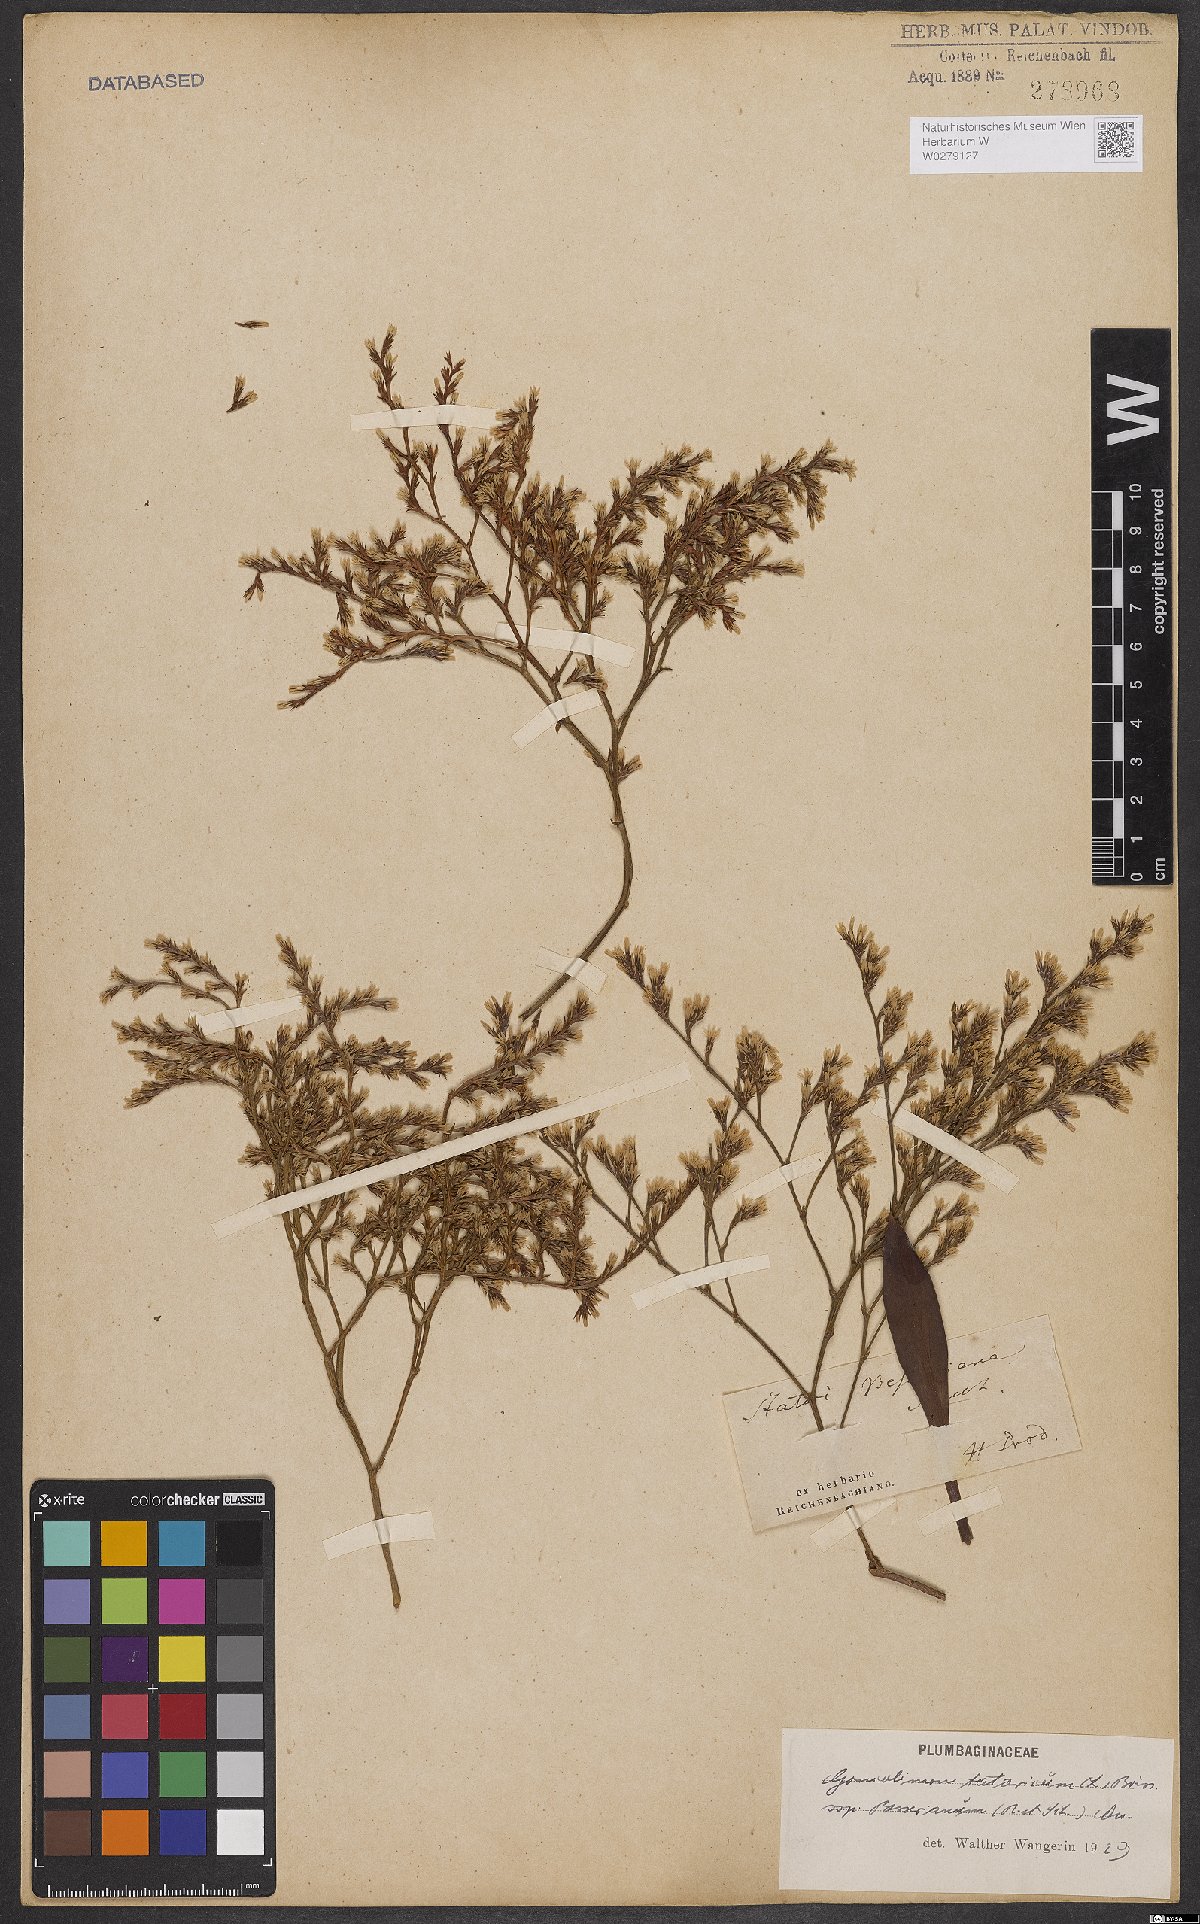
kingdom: Plantae
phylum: Tracheophyta
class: Magnoliopsida
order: Caryophyllales
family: Plumbaginaceae
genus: Goniolimon
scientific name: Goniolimon besserianum
